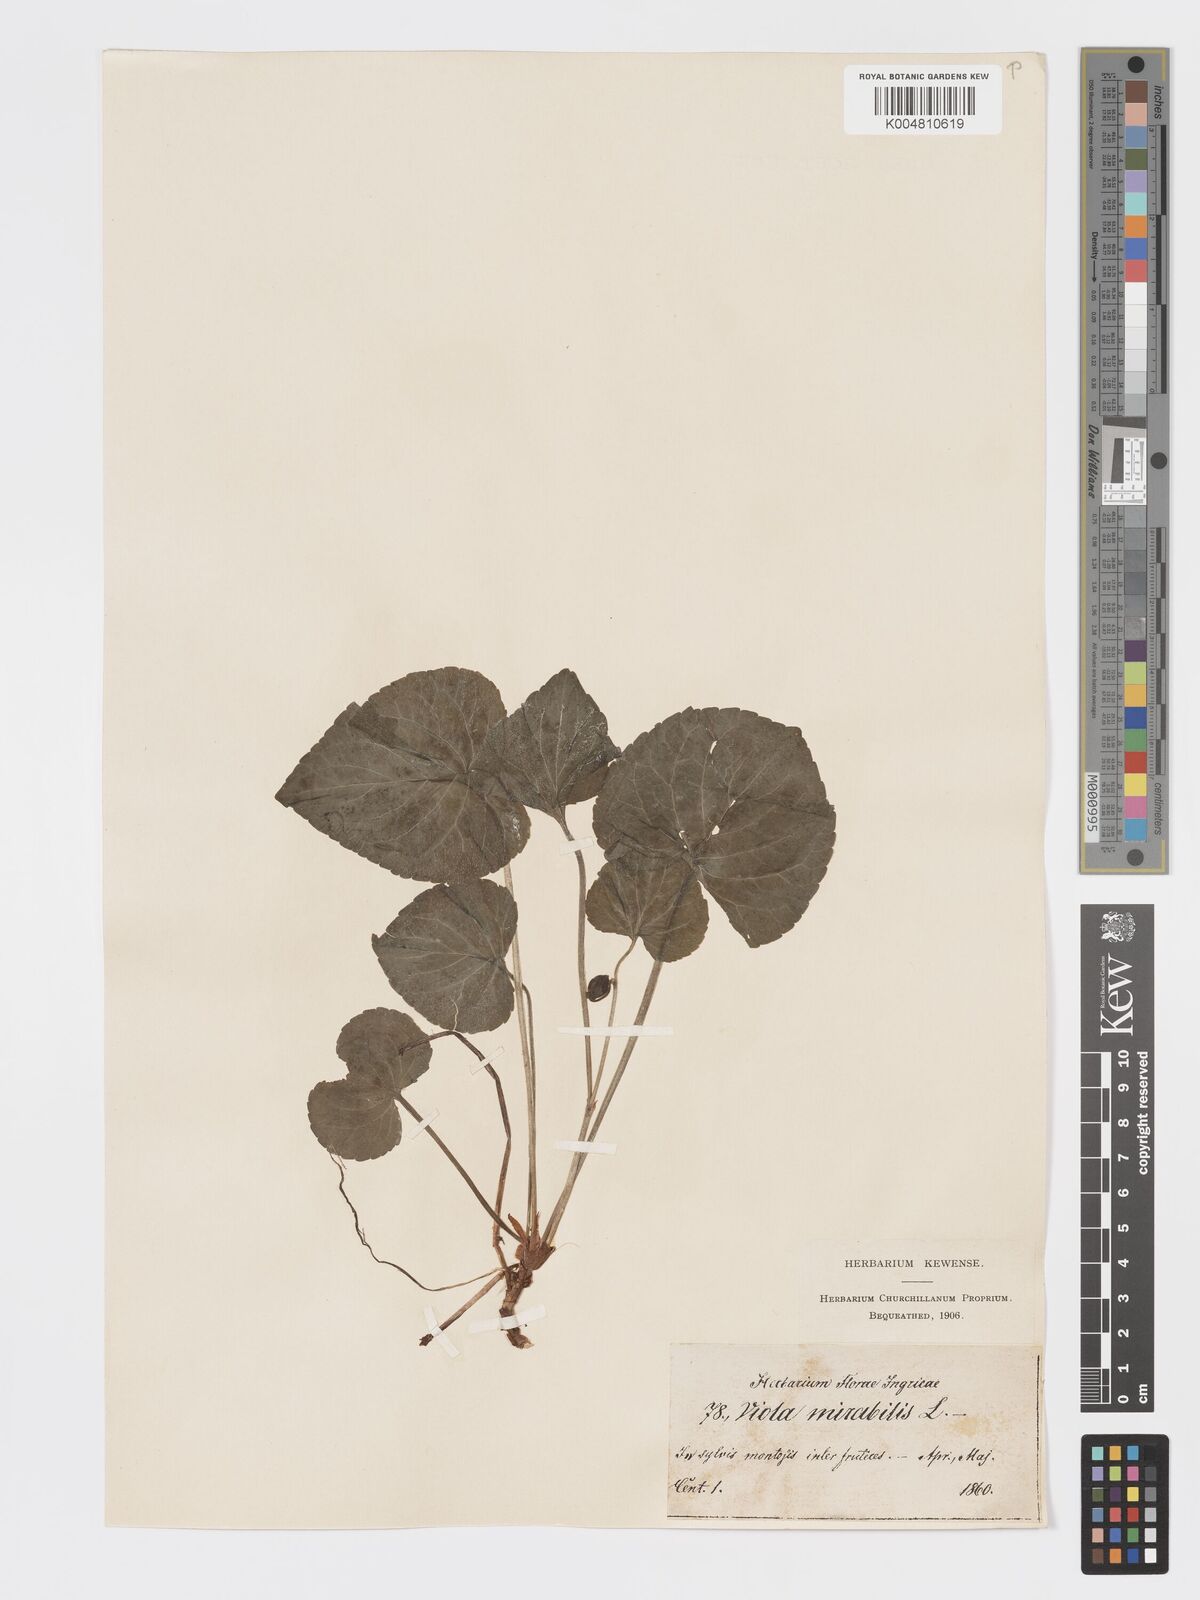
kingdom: Plantae
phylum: Tracheophyta
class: Magnoliopsida
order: Malpighiales
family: Violaceae
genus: Viola
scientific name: Viola mirabilis
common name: Wonder violet
